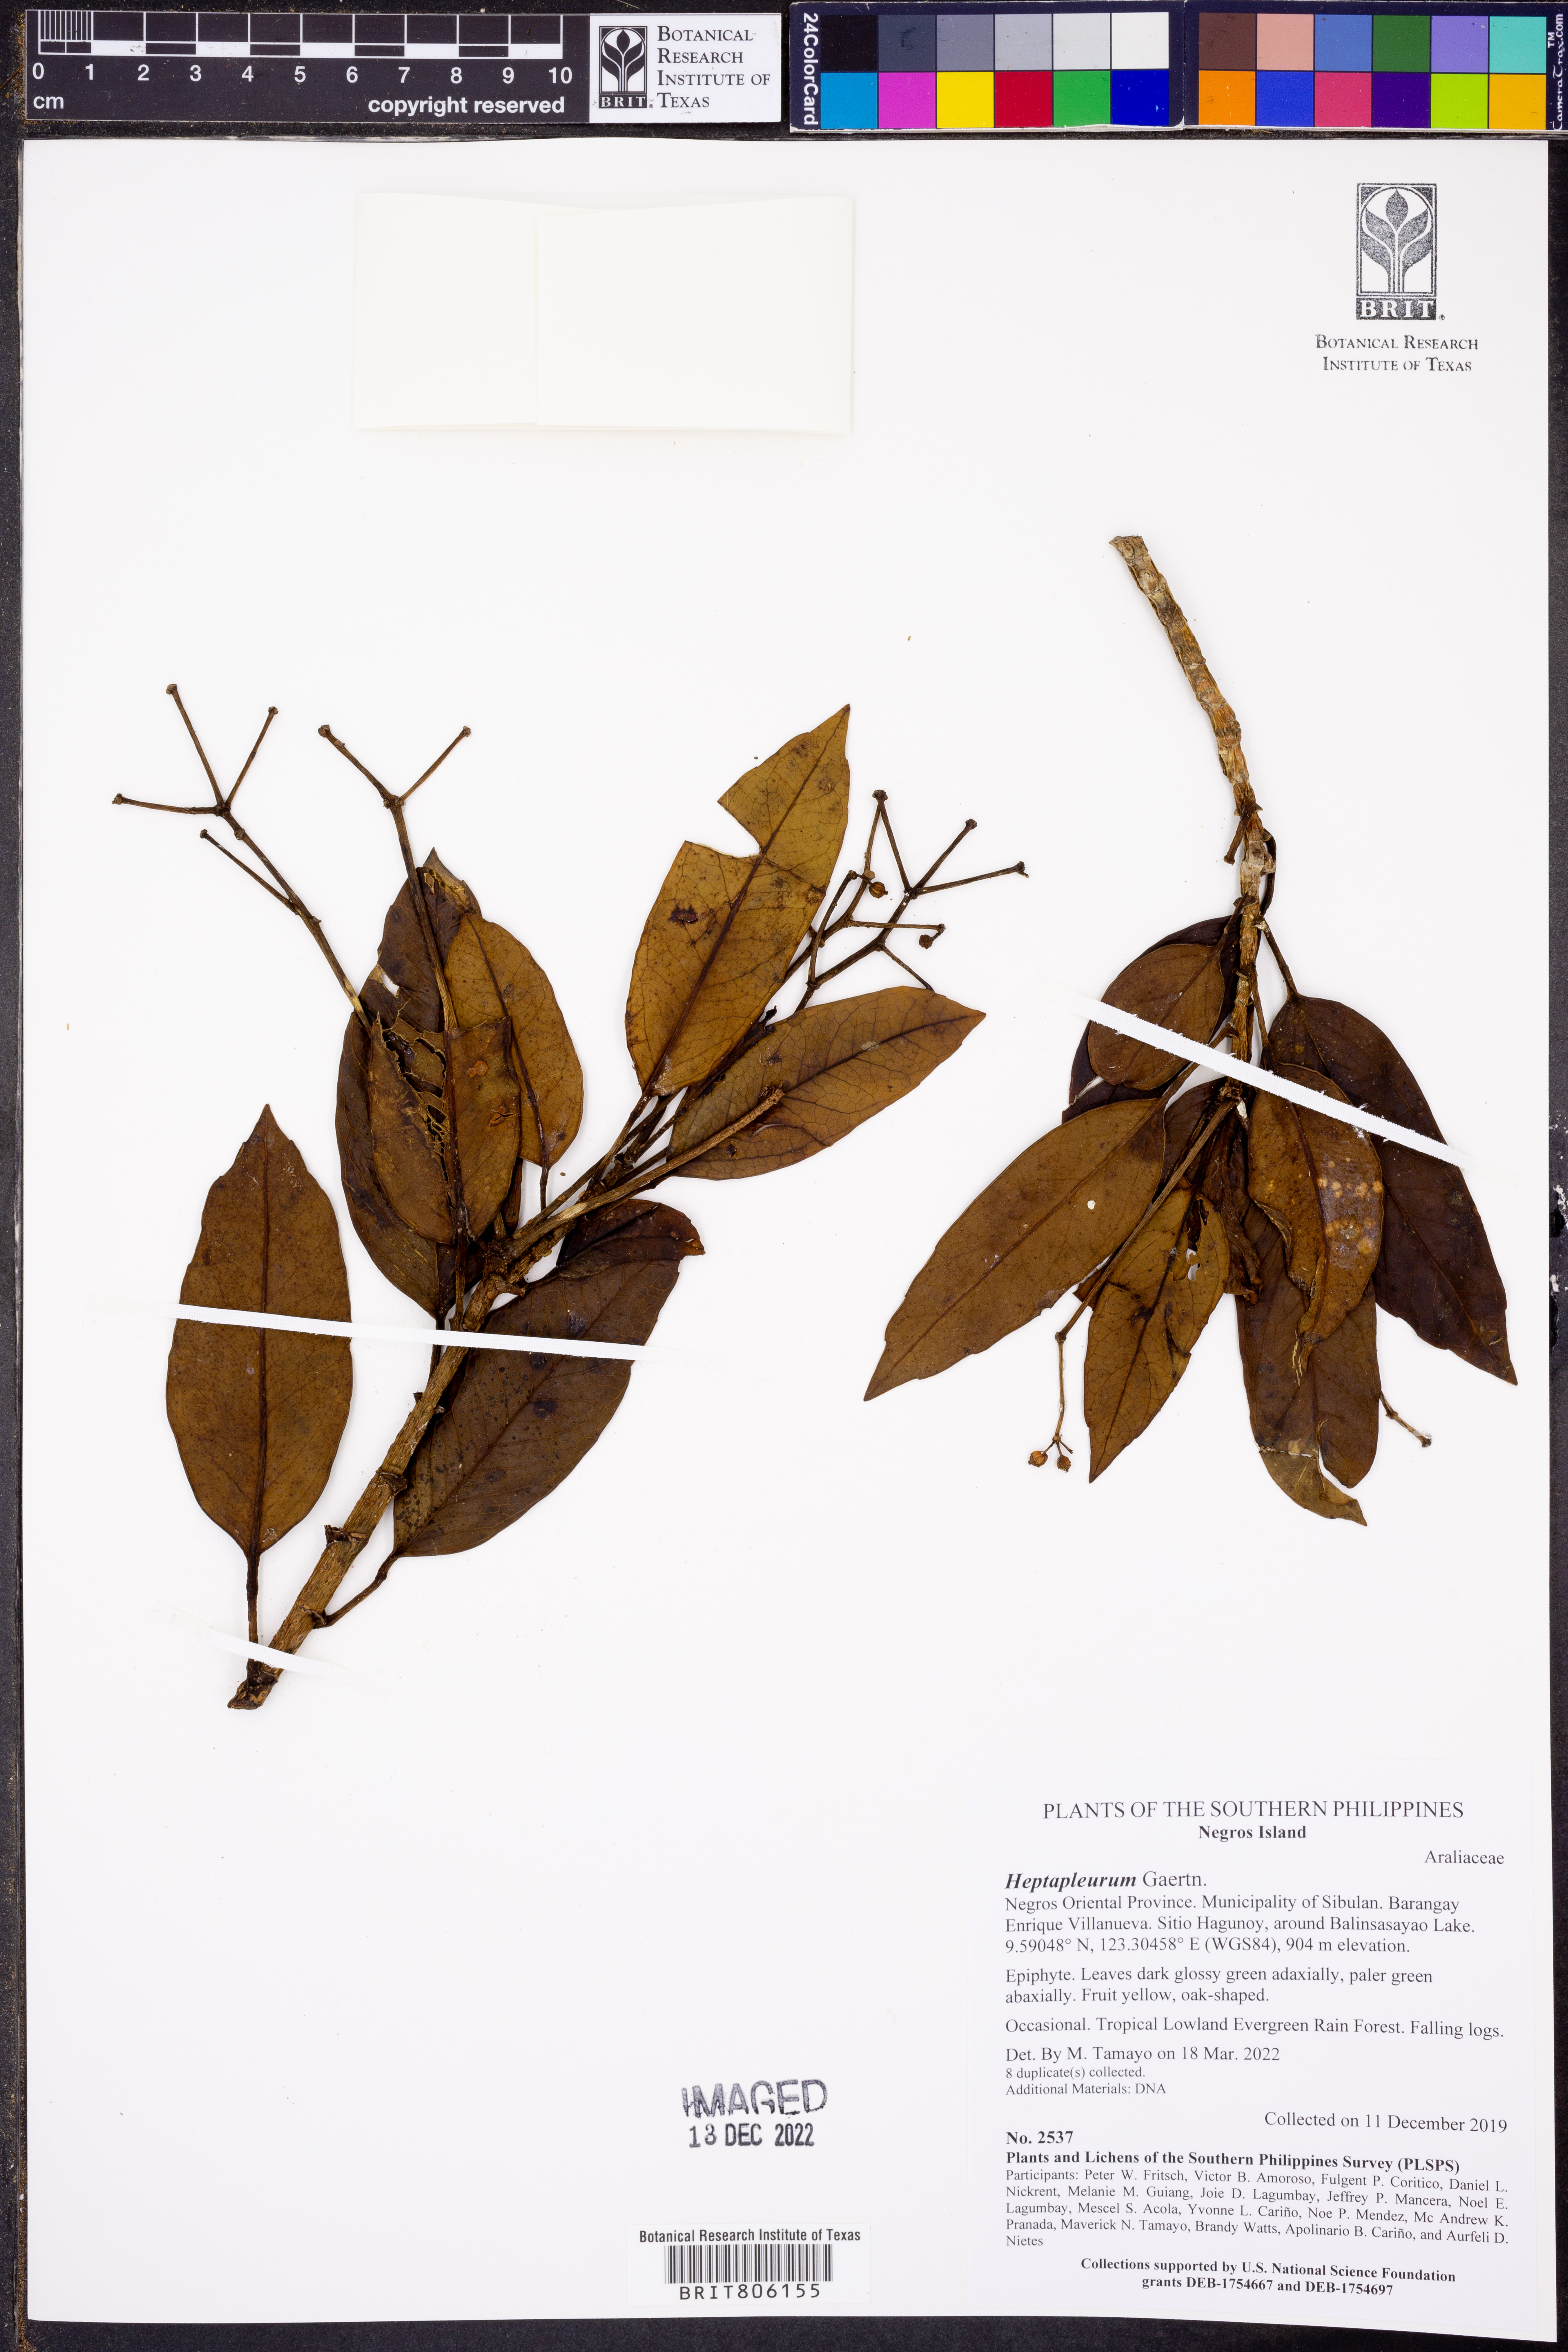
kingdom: Plantae
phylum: Tracheophyta
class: Magnoliopsida
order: Apiales
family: Araliaceae
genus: Heptapleurum
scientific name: Heptapleurum simplicifolium
